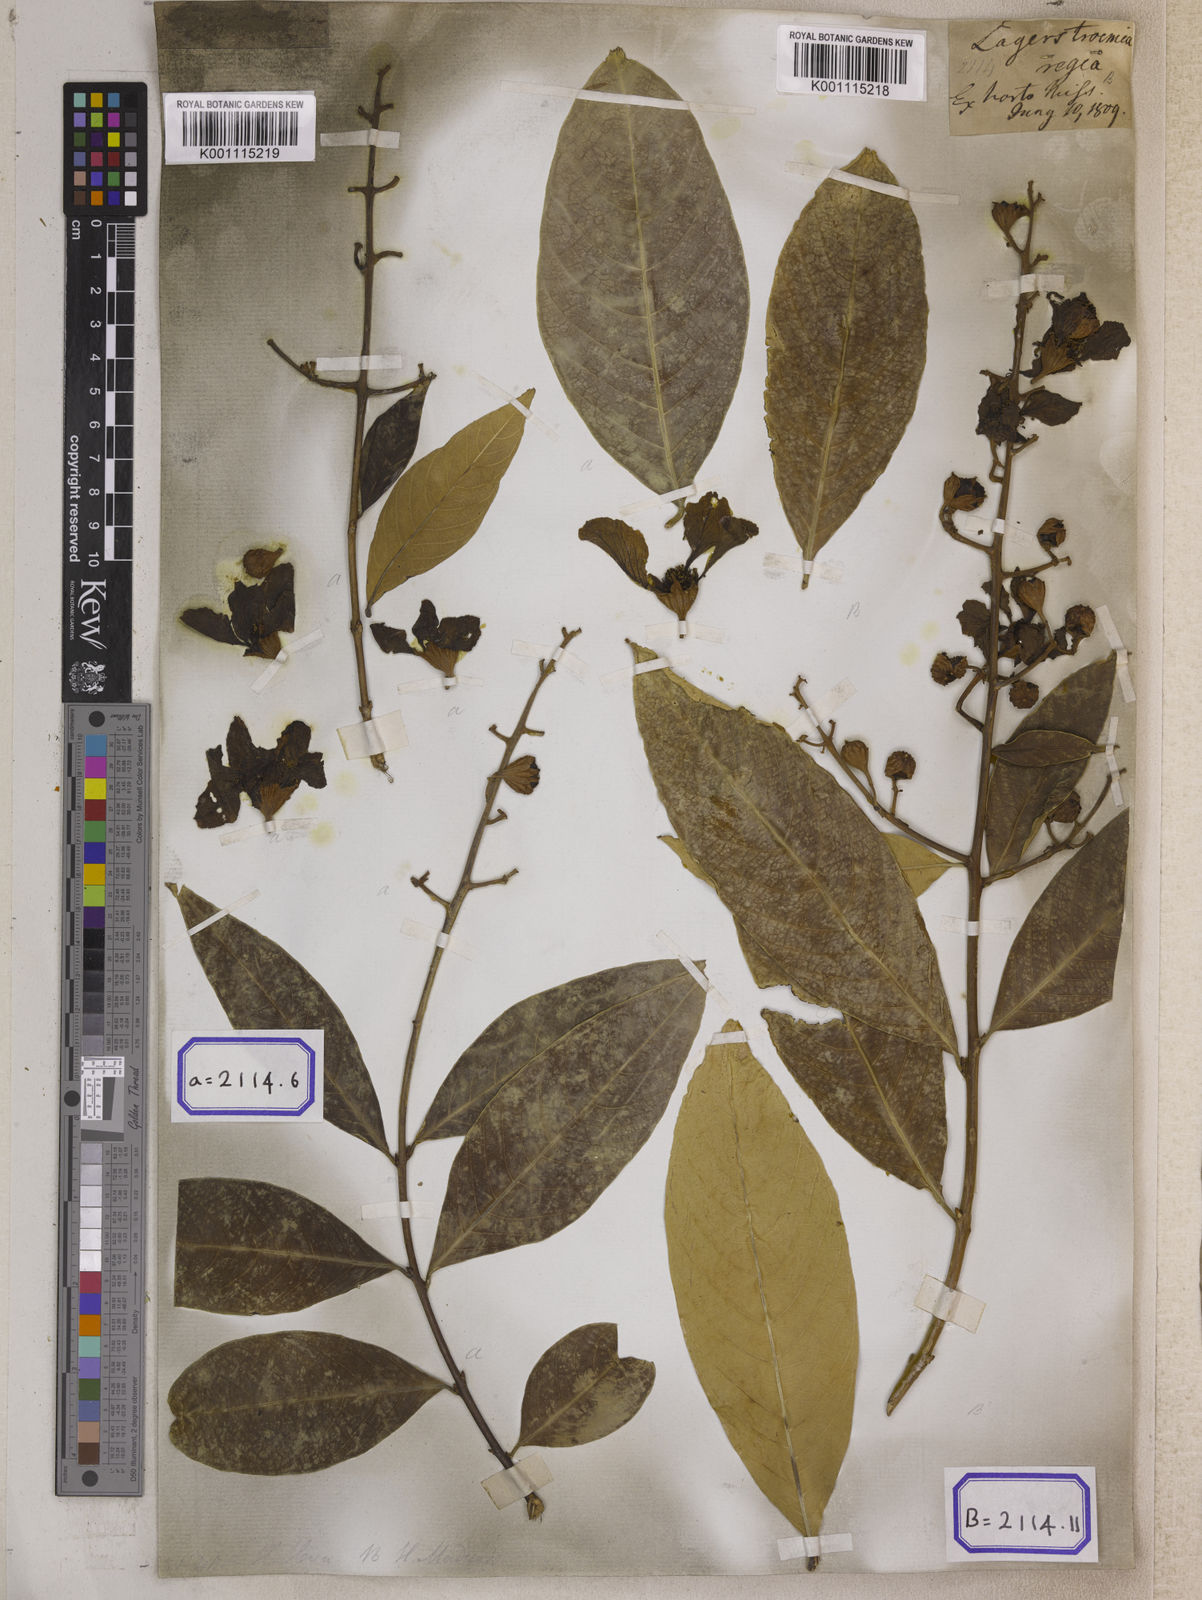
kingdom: Plantae
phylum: Tracheophyta
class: Magnoliopsida
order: Myrtales
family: Lythraceae
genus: Lagerstroemia
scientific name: Lagerstroemia
